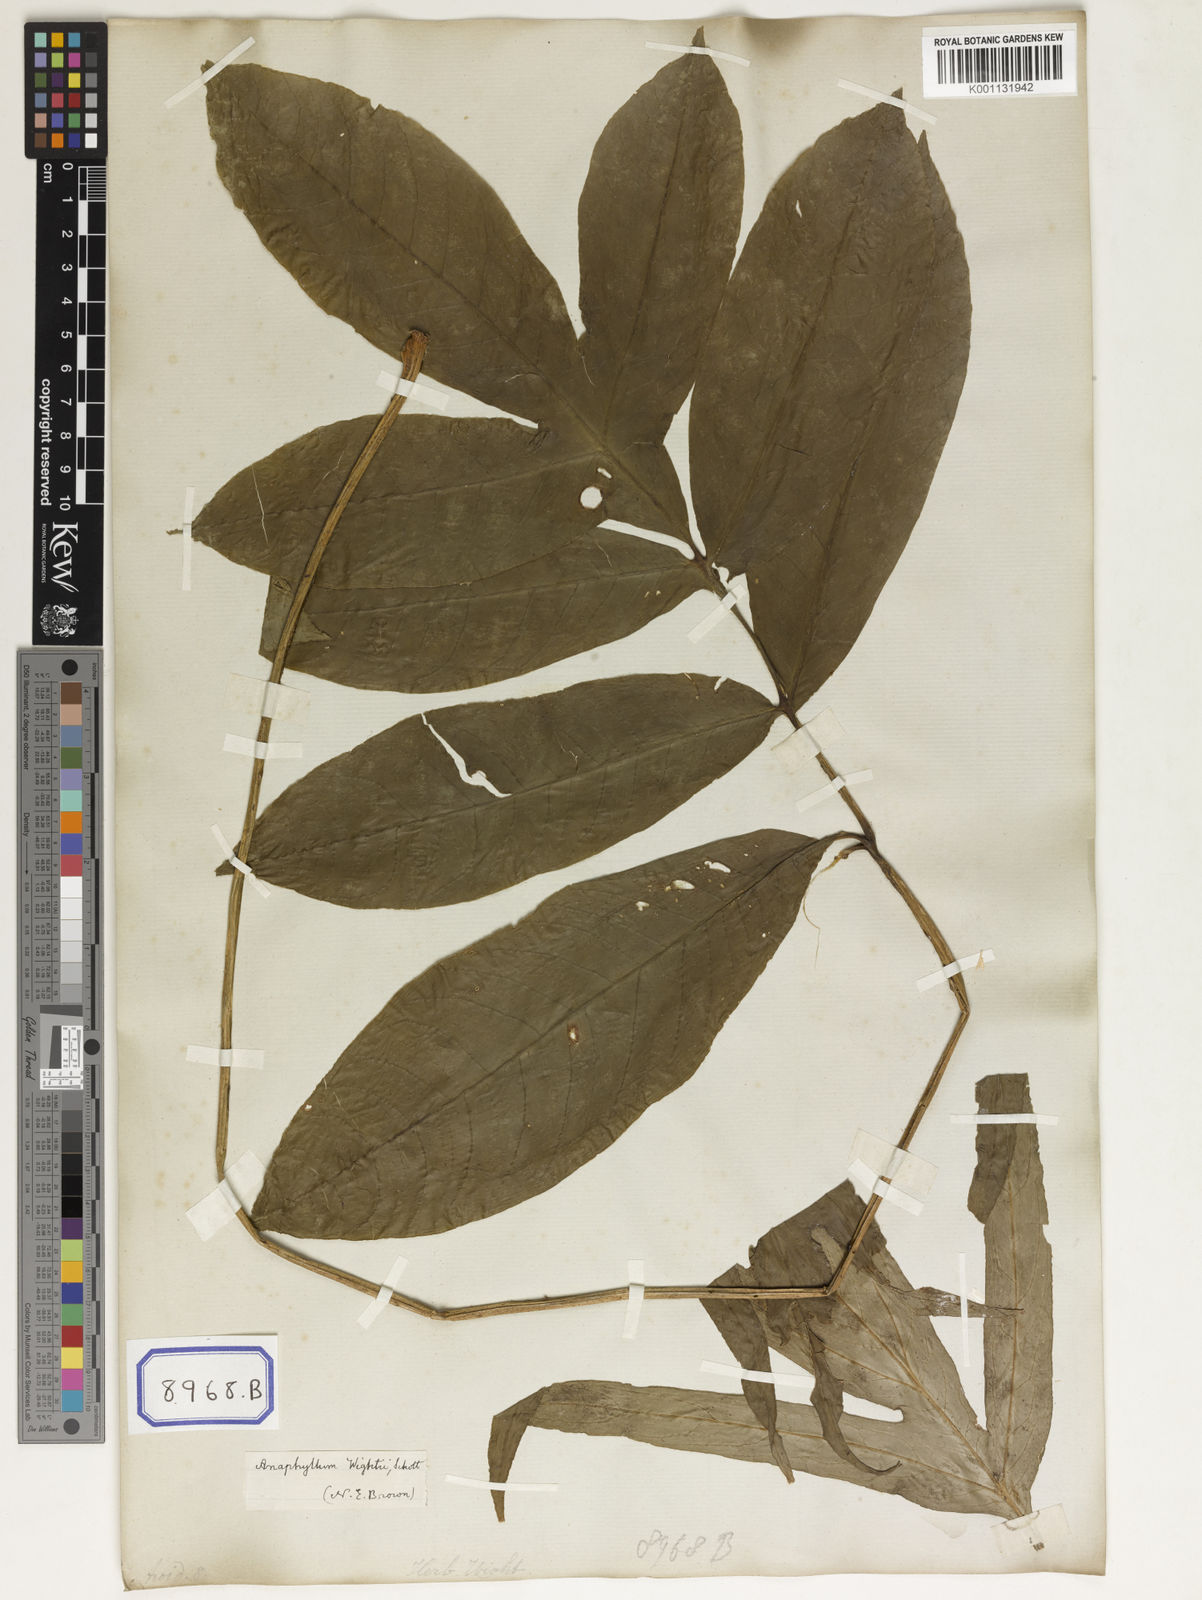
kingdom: Plantae
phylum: Tracheophyta
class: Liliopsida
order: Alismatales
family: Araceae
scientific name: Araceae
